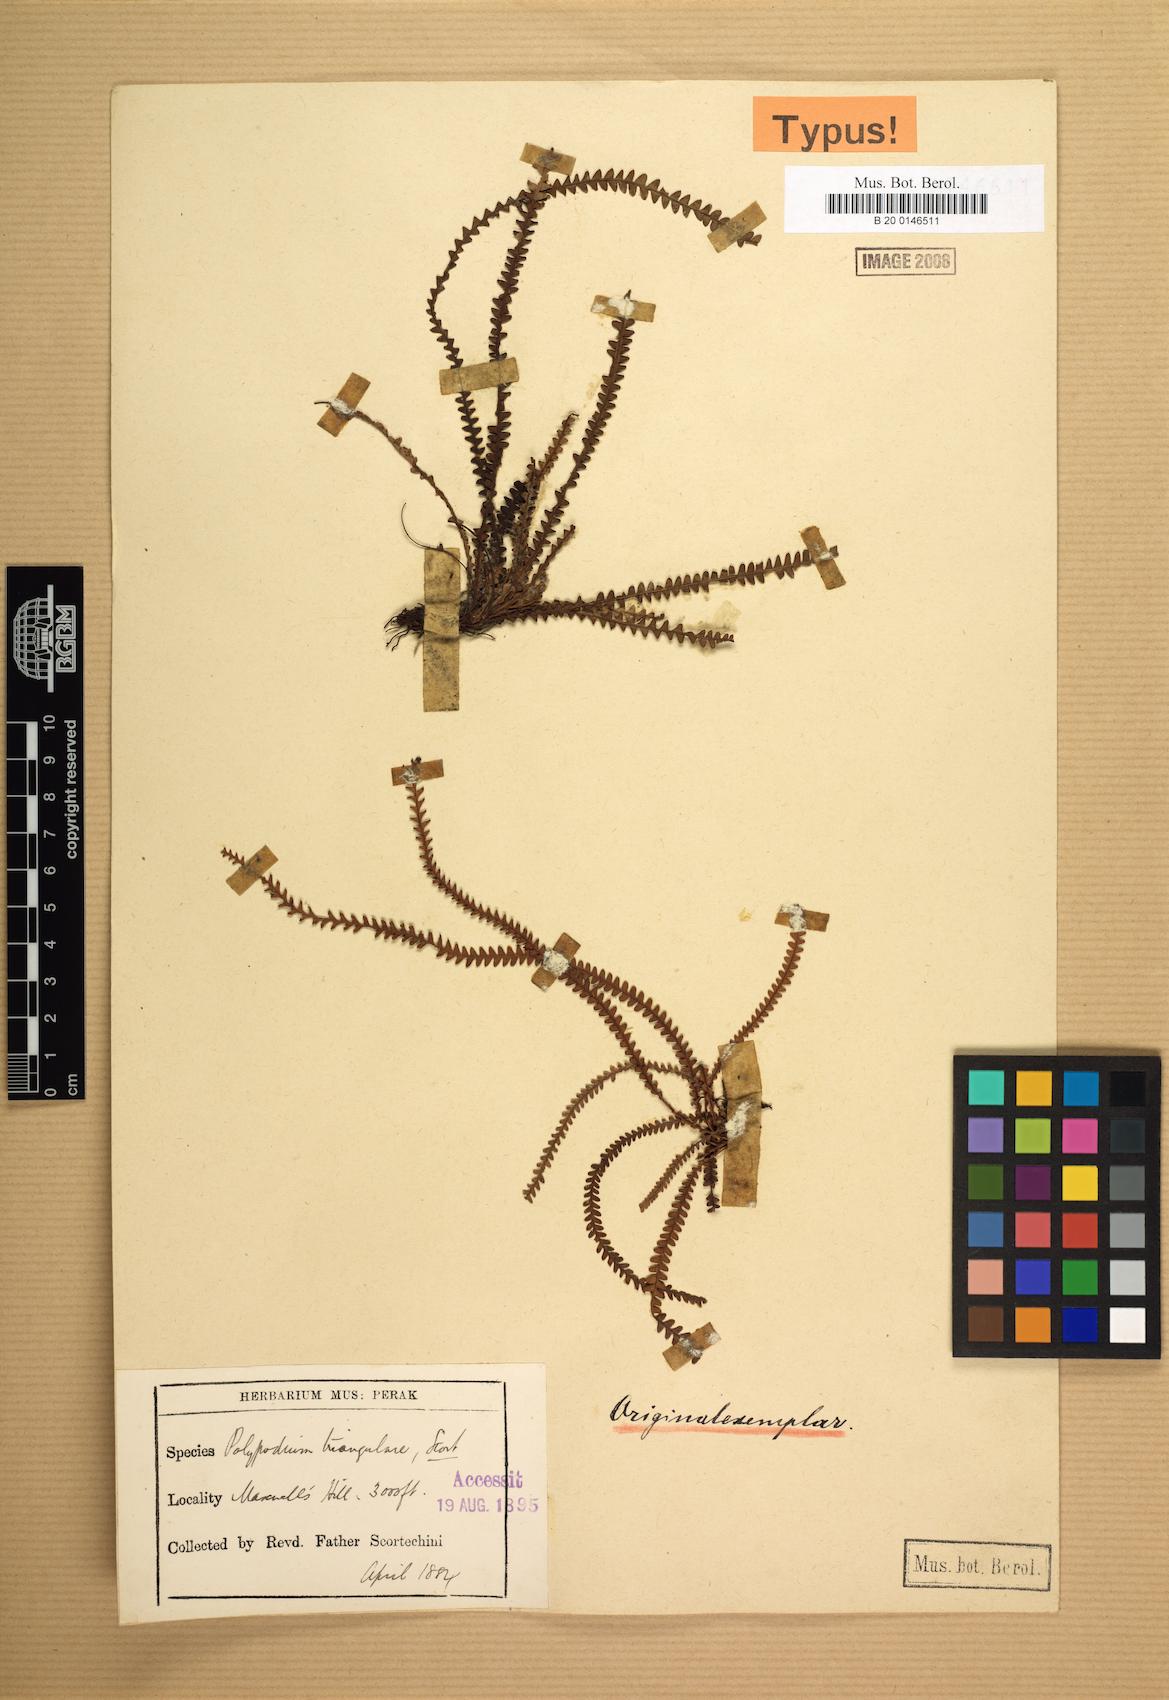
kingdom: Plantae
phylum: Tracheophyta
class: Polypodiopsida
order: Polypodiales
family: Polypodiaceae
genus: Acrosorus
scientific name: Acrosorus friderici-et-pauli
